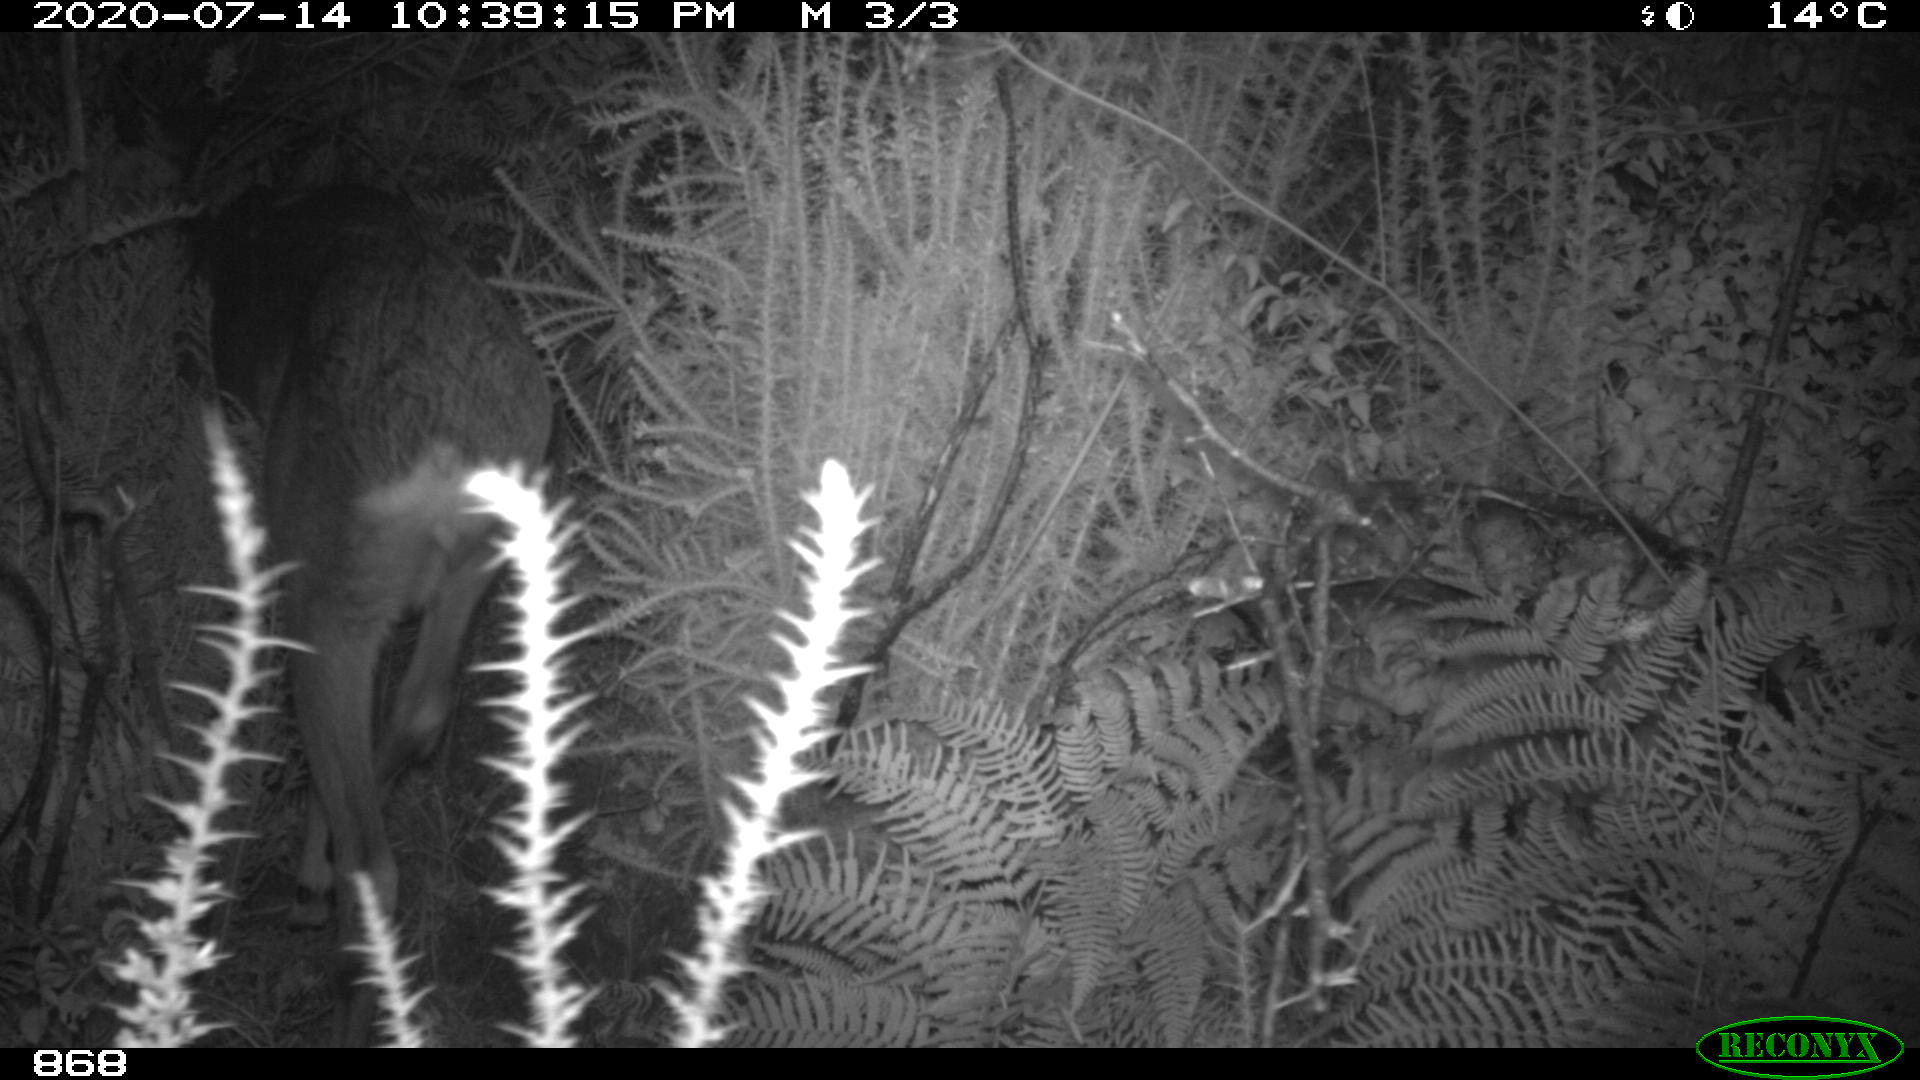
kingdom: Animalia
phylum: Chordata
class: Mammalia
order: Artiodactyla
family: Cervidae
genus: Capreolus
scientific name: Capreolus capreolus
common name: Western roe deer
